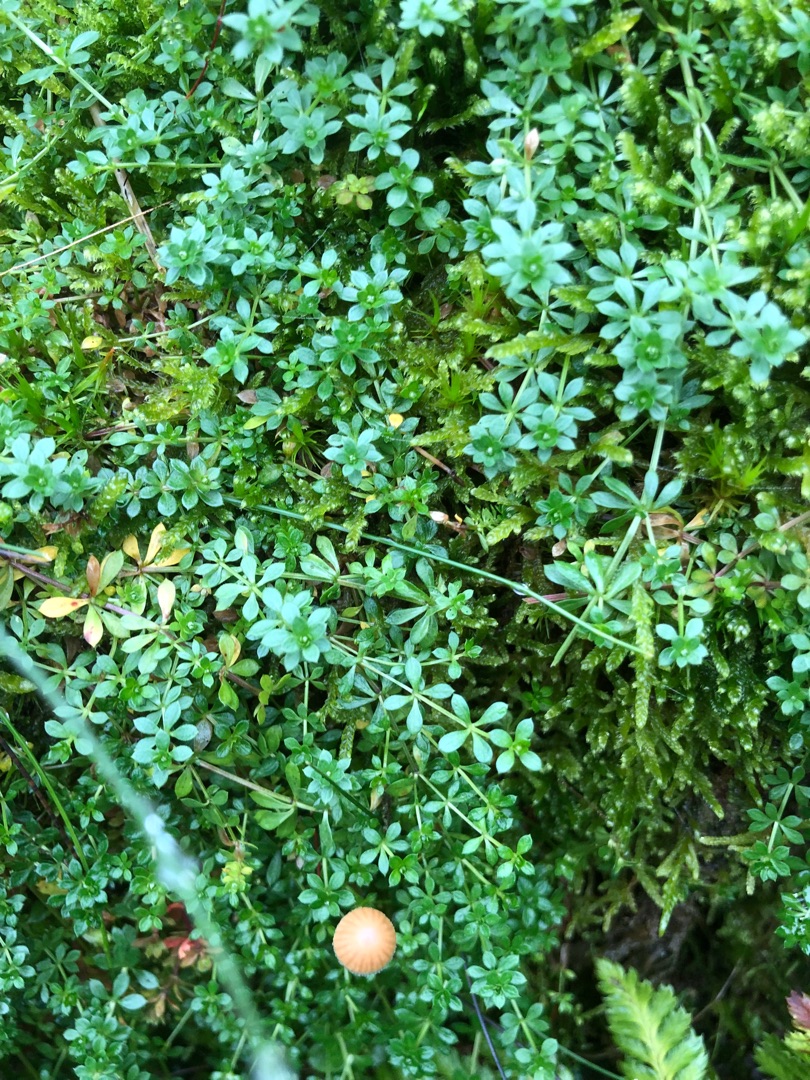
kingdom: Plantae
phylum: Tracheophyta
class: Magnoliopsida
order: Gentianales
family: Rubiaceae
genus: Galium
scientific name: Galium saxatile
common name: Lyng-snerre
